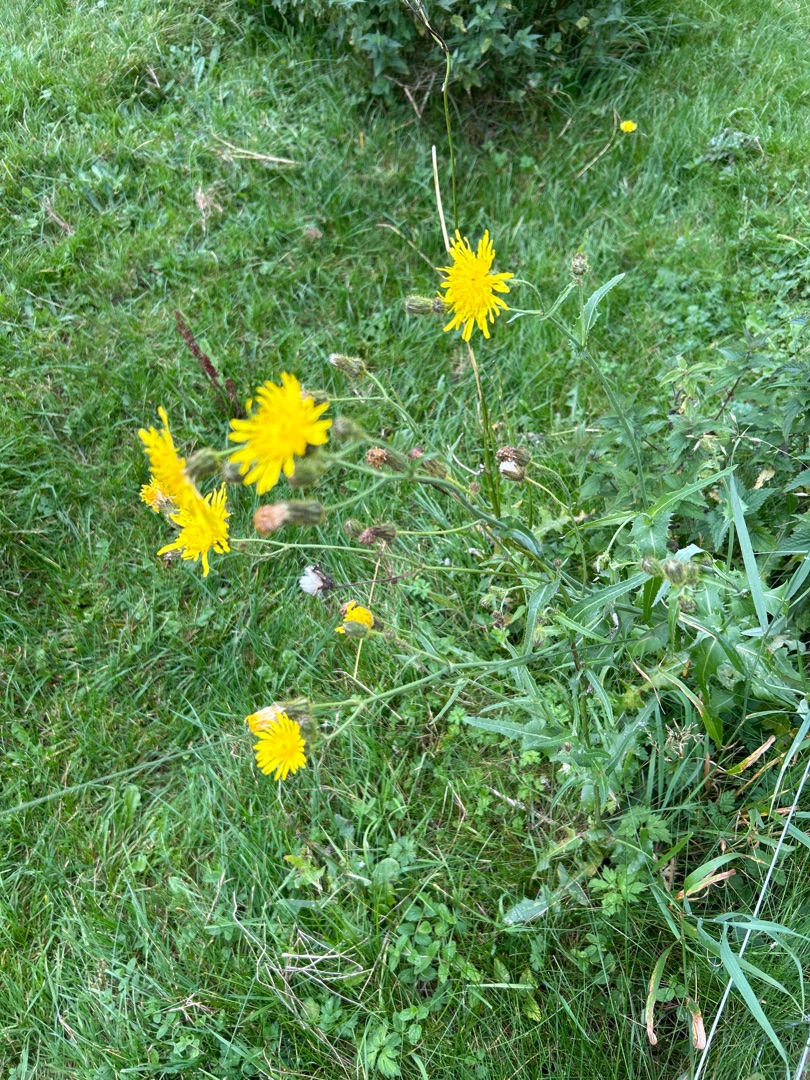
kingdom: Plantae
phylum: Tracheophyta
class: Magnoliopsida
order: Asterales
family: Asteraceae
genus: Sonchus
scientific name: Sonchus arvensis
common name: Ager-svinemælk
